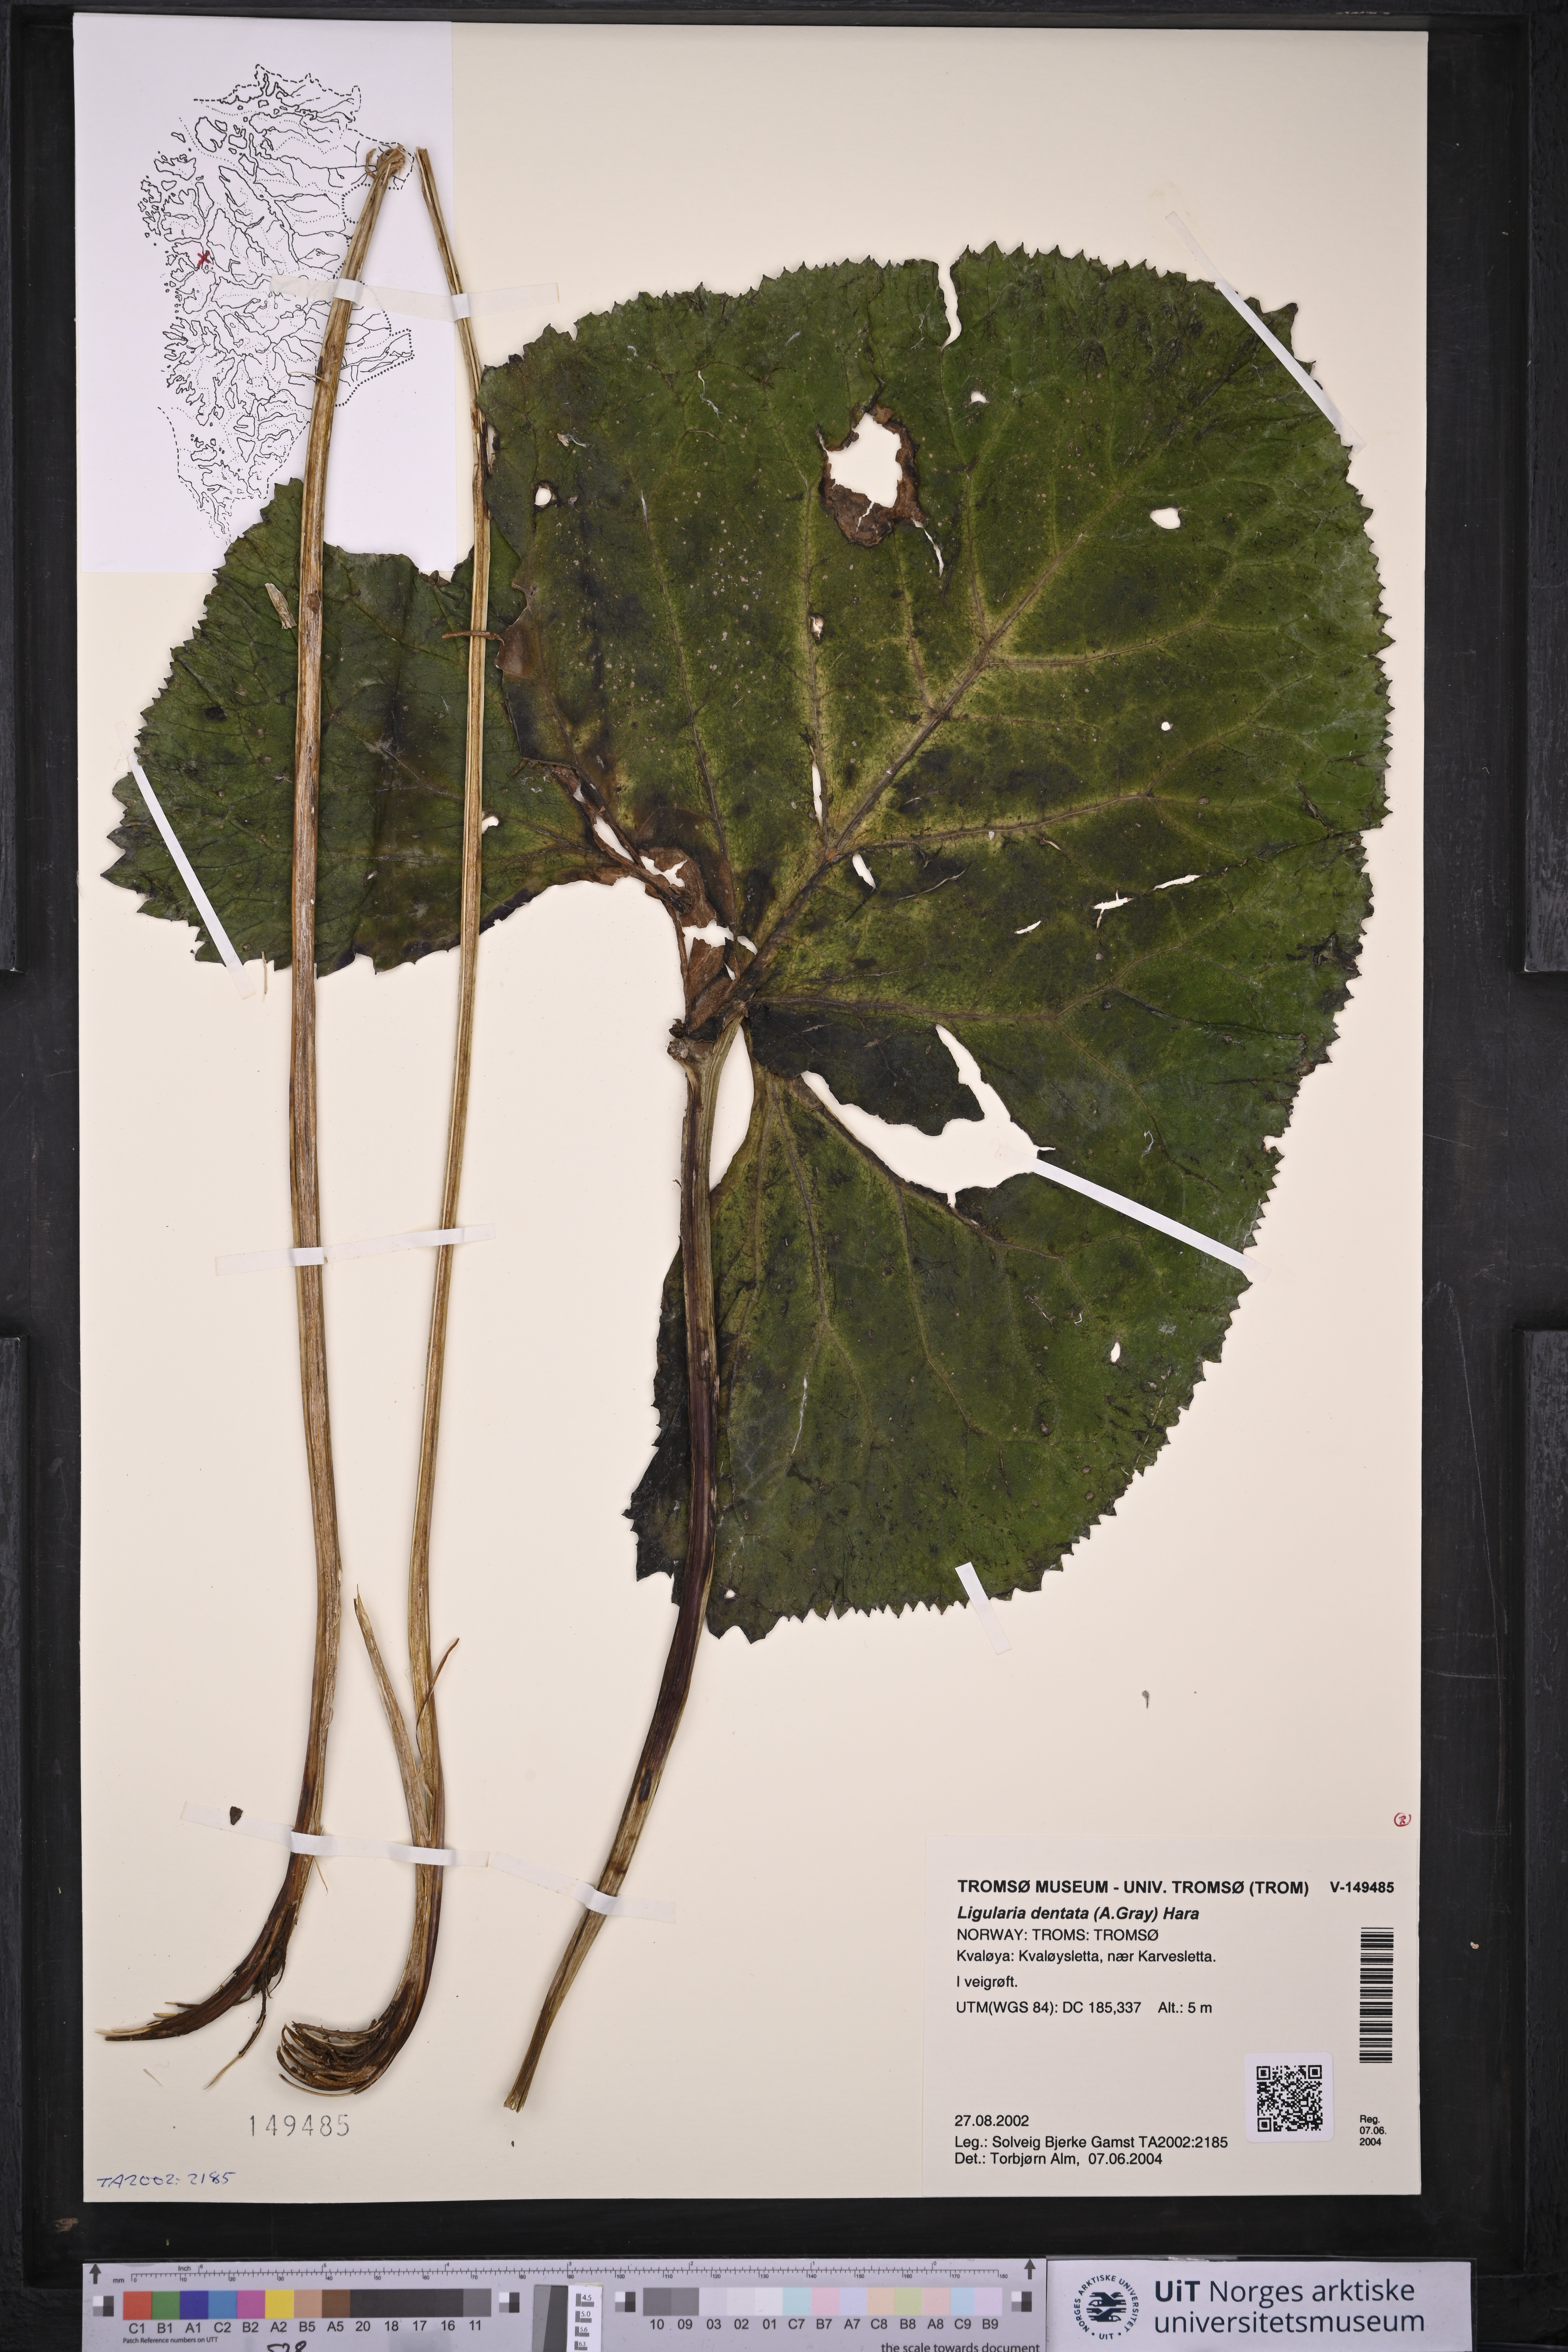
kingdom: Plantae
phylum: Tracheophyta
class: Magnoliopsida
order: Asterales
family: Asteraceae
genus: Ligularia
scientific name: Ligularia dentata
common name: Leopardplant
